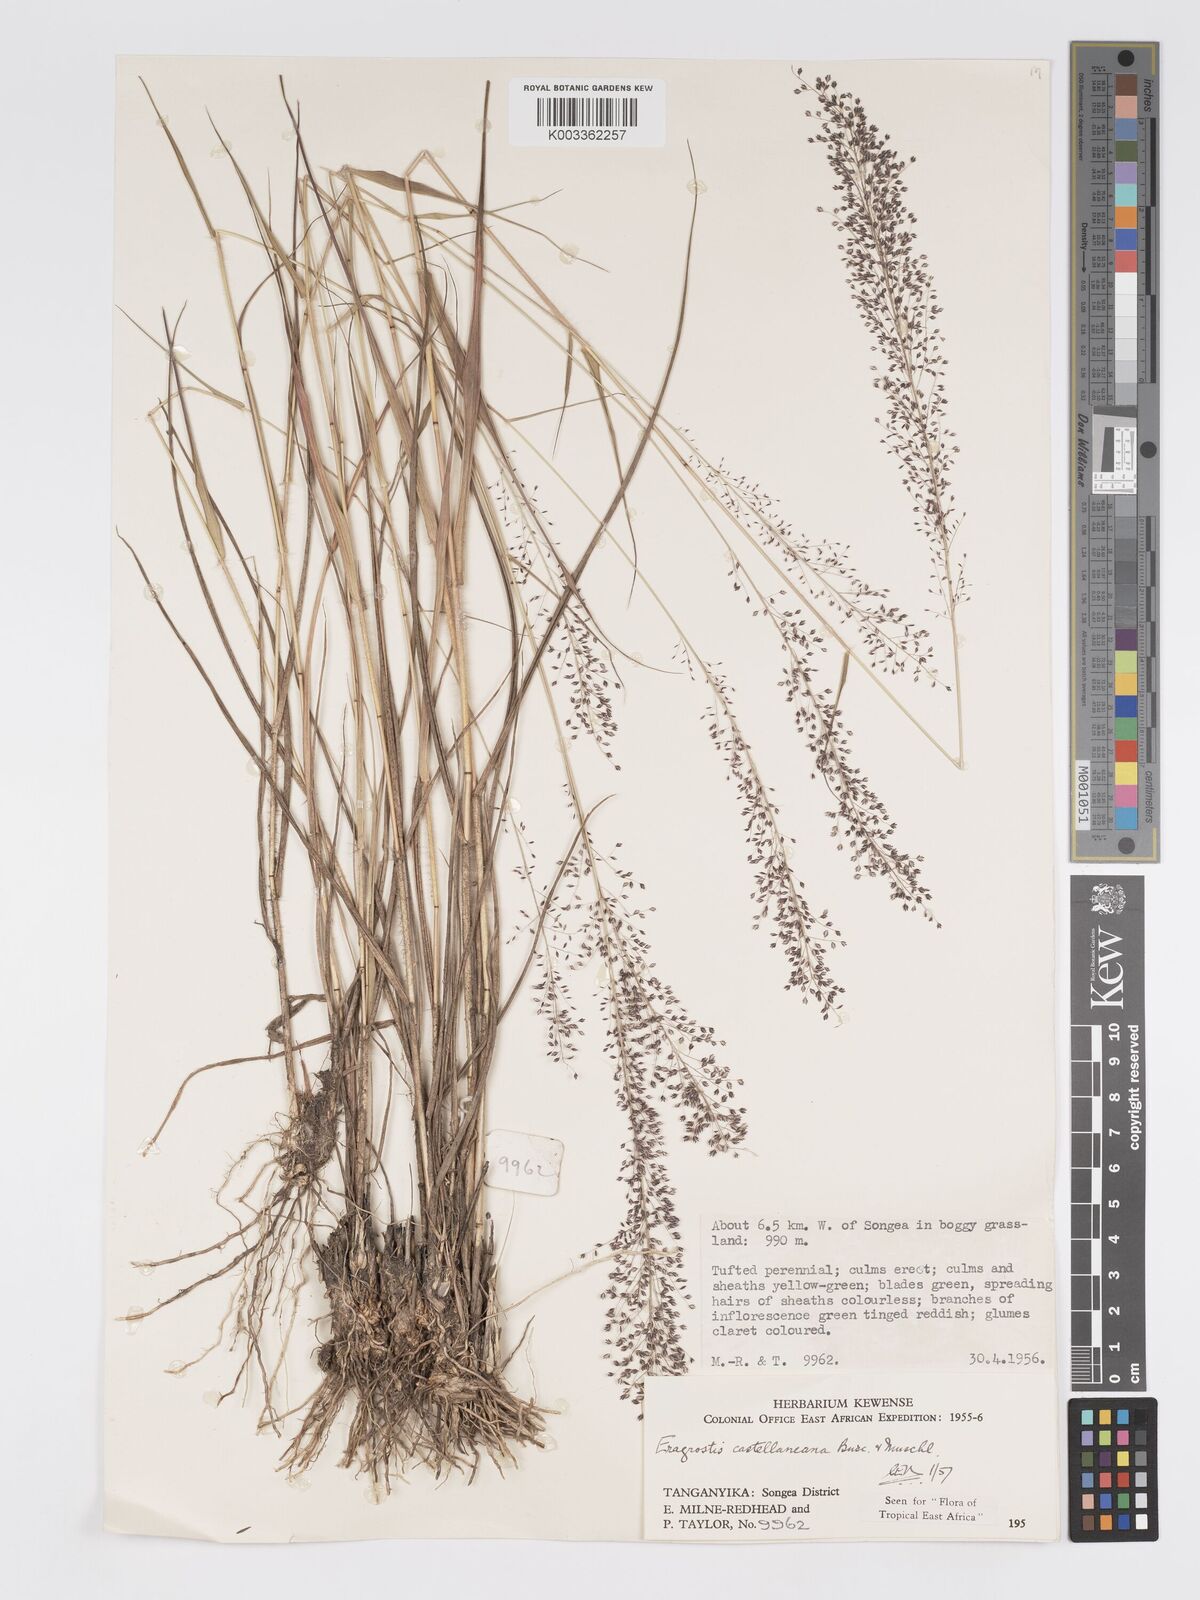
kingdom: Plantae
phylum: Tracheophyta
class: Liliopsida
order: Poales
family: Poaceae
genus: Eragrostis
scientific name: Eragrostis castellaneana
